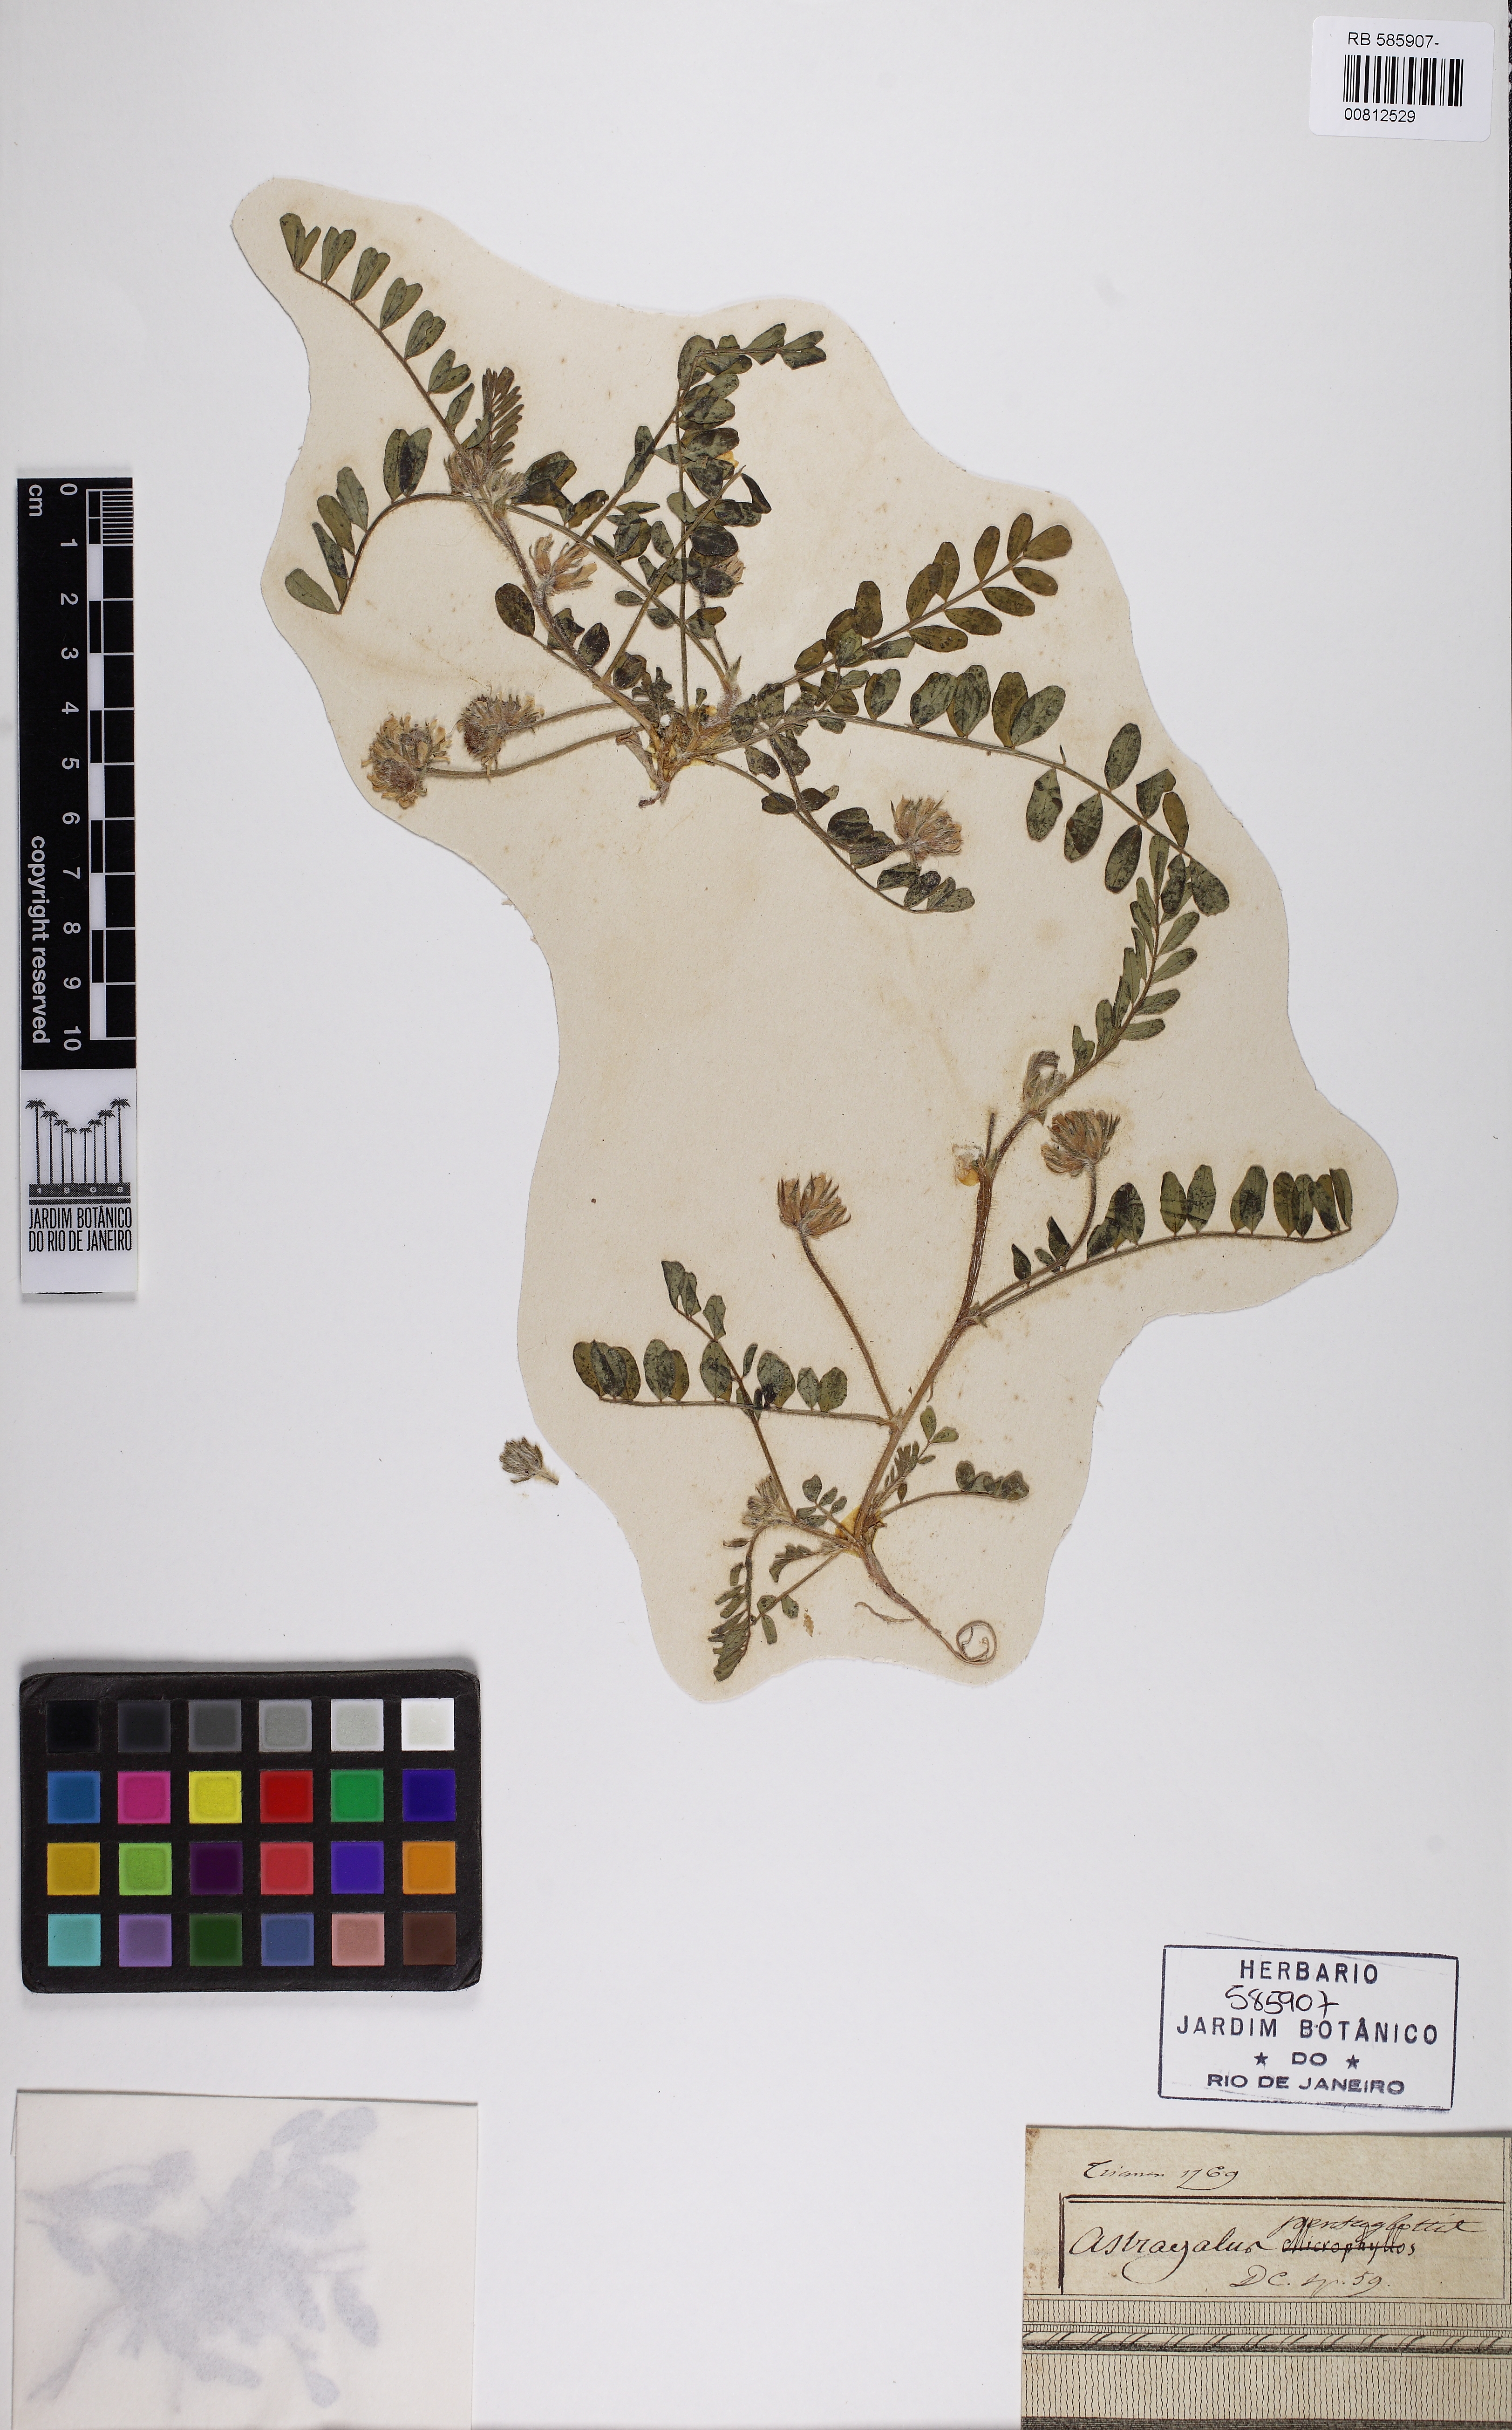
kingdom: Plantae
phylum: Tracheophyta
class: Magnoliopsida
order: Fabales
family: Fabaceae
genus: Astragalus
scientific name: Astragalus echinatus
